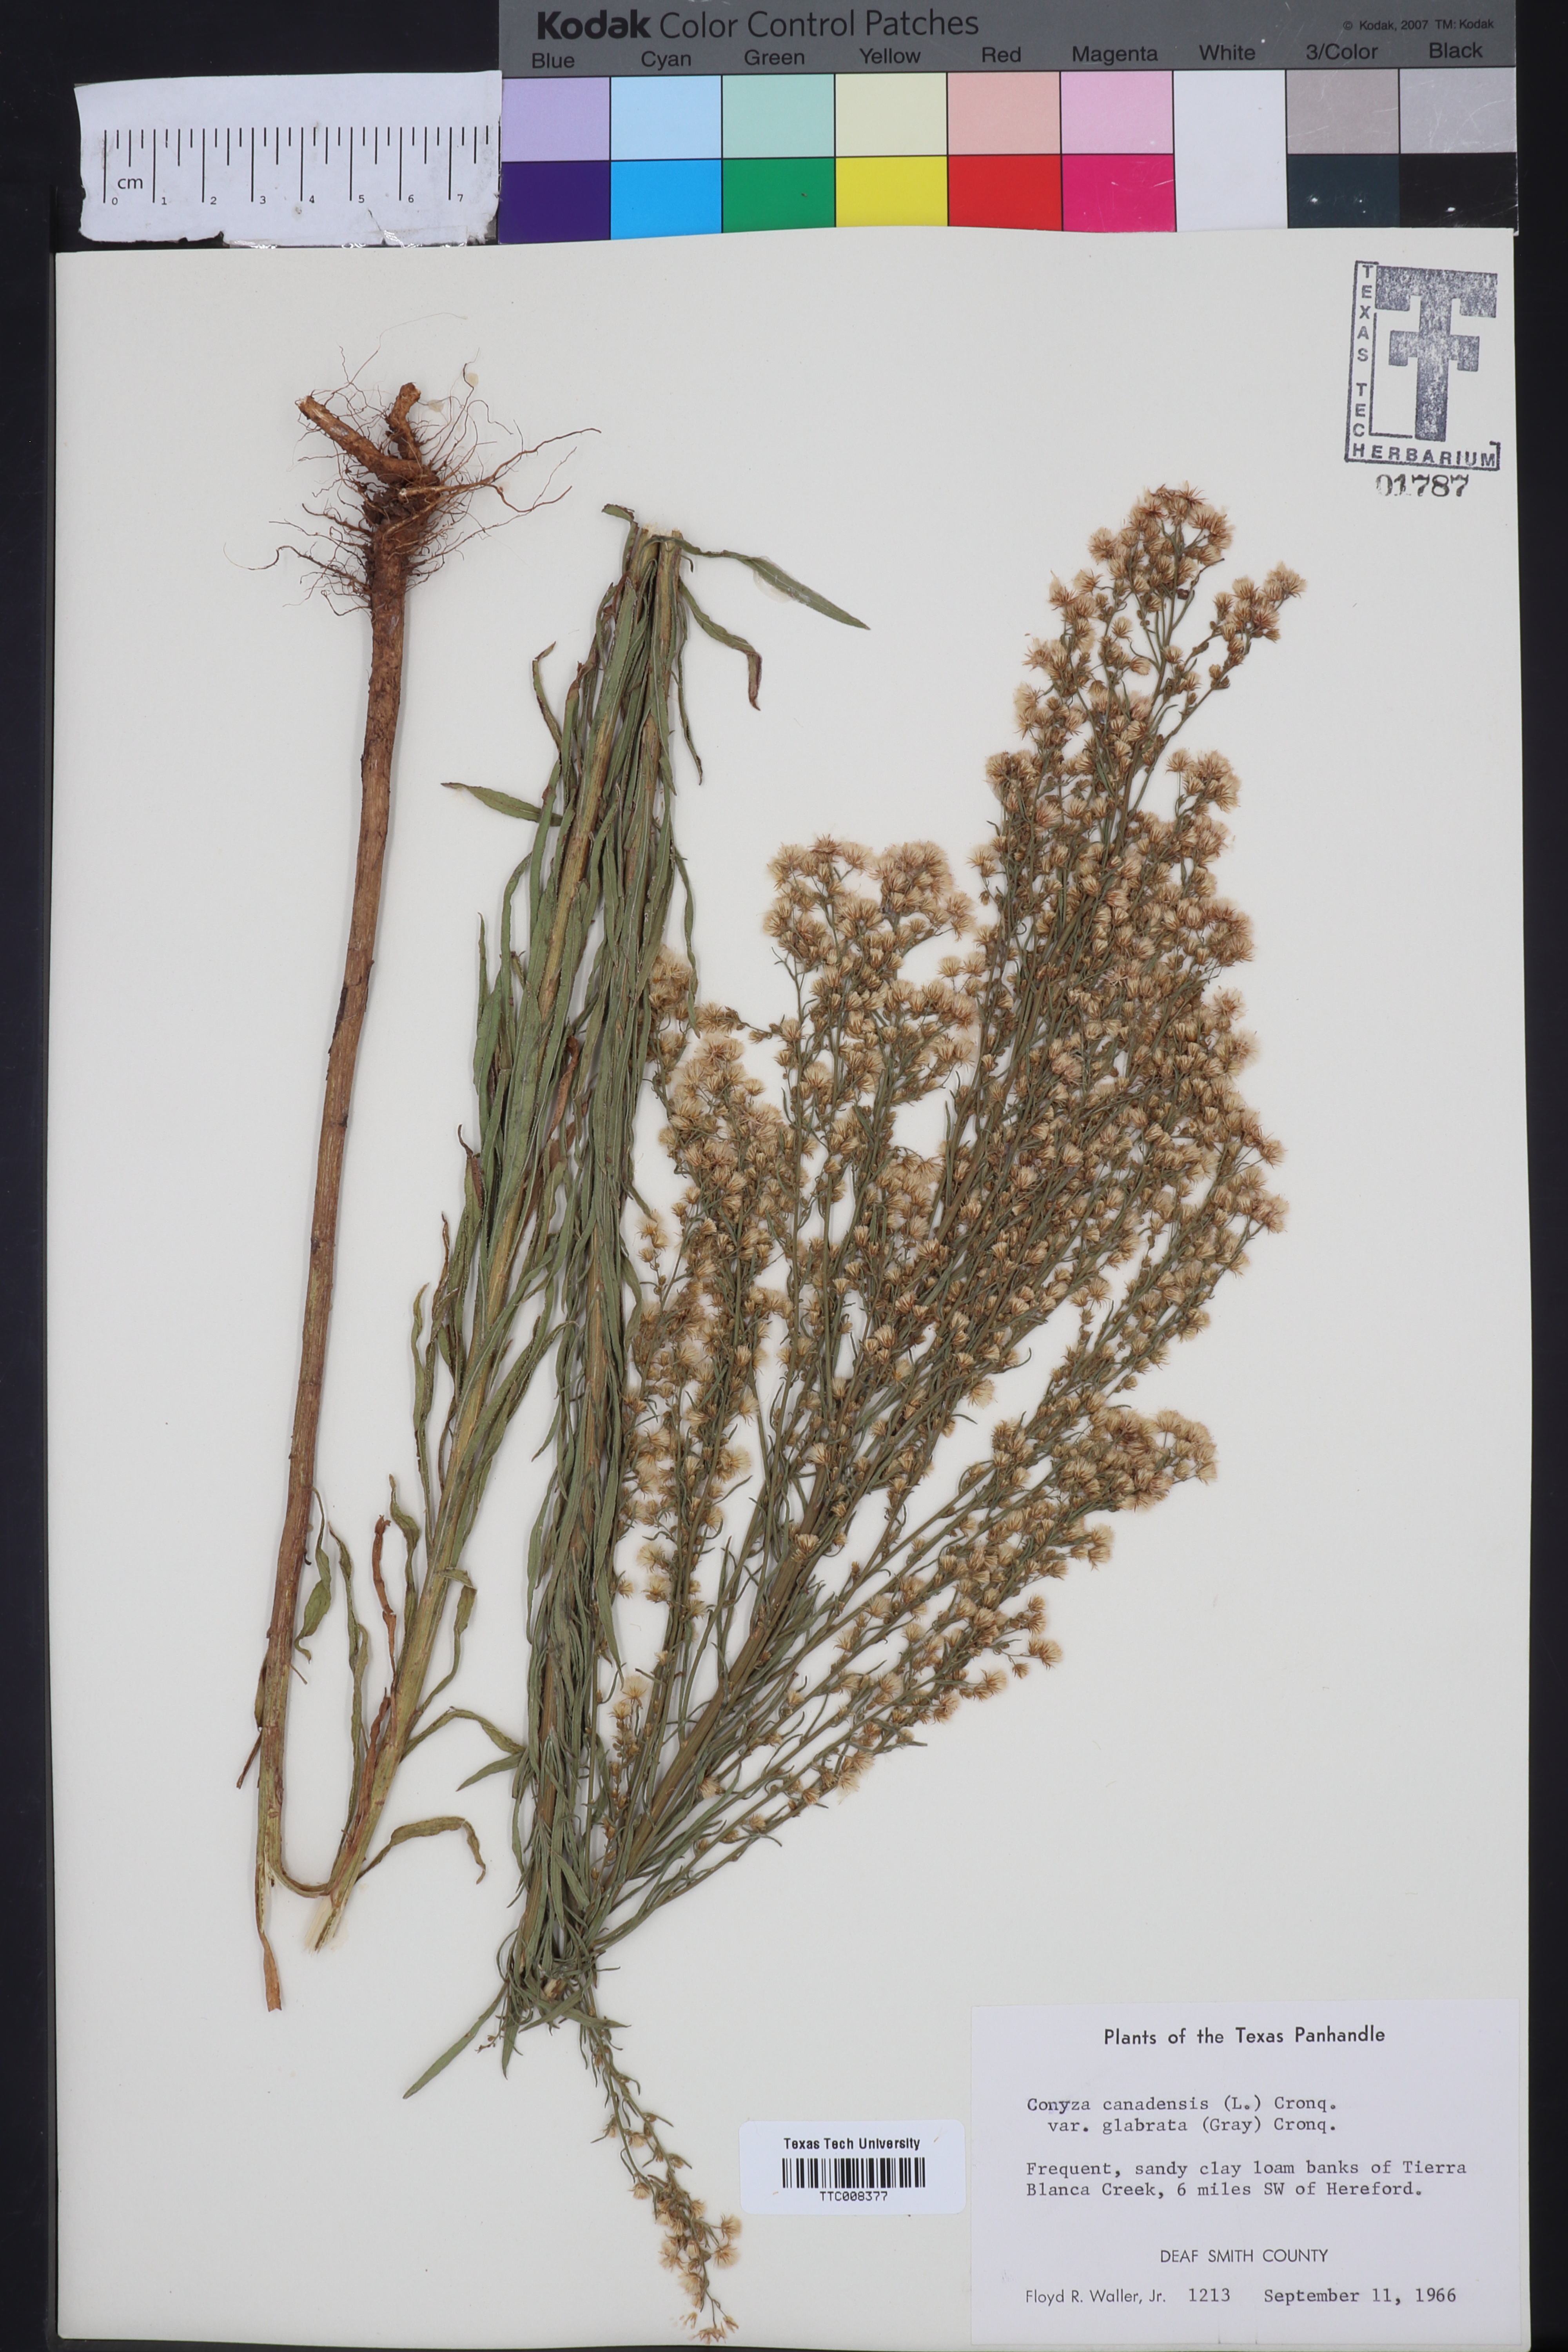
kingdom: Plantae
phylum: Tracheophyta
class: Magnoliopsida
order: Asterales
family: Asteraceae
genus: Erigeron
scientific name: Erigeron canadensis
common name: Canadian fleabane
